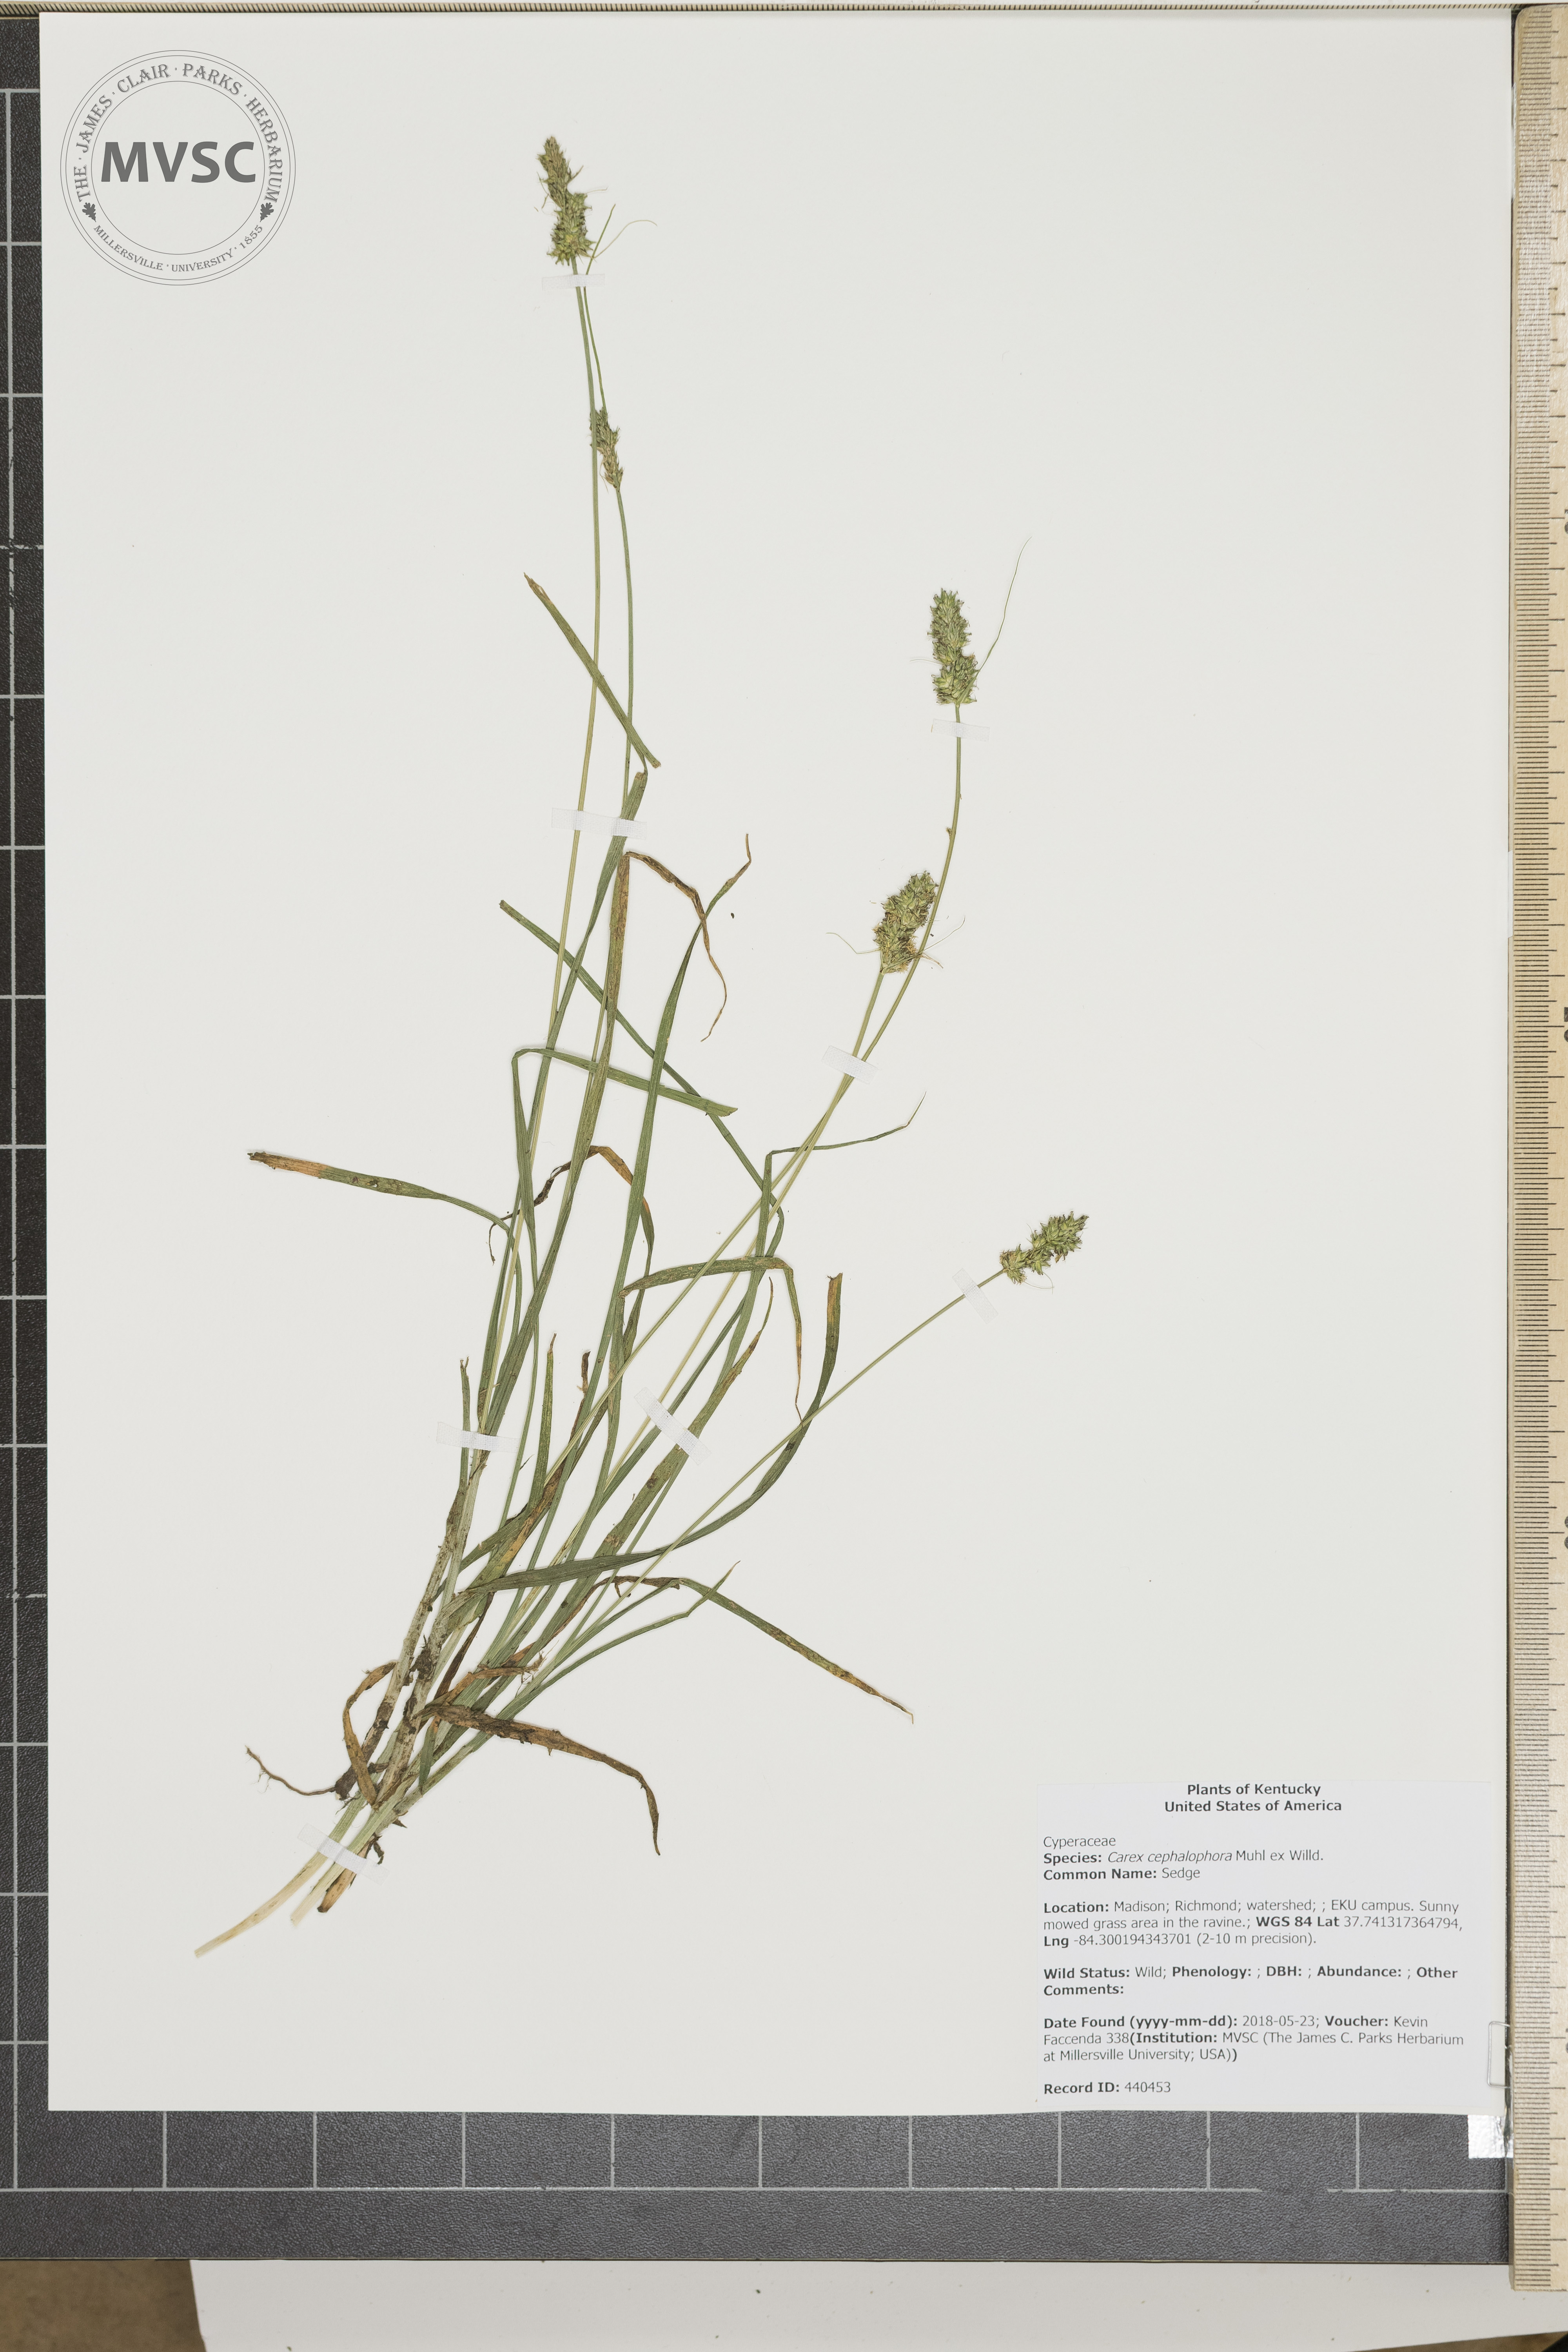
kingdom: Plantae
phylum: Tracheophyta
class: Liliopsida
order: Poales
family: Cyperaceae
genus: Carex
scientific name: Carex cephalophora
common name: Sedge
